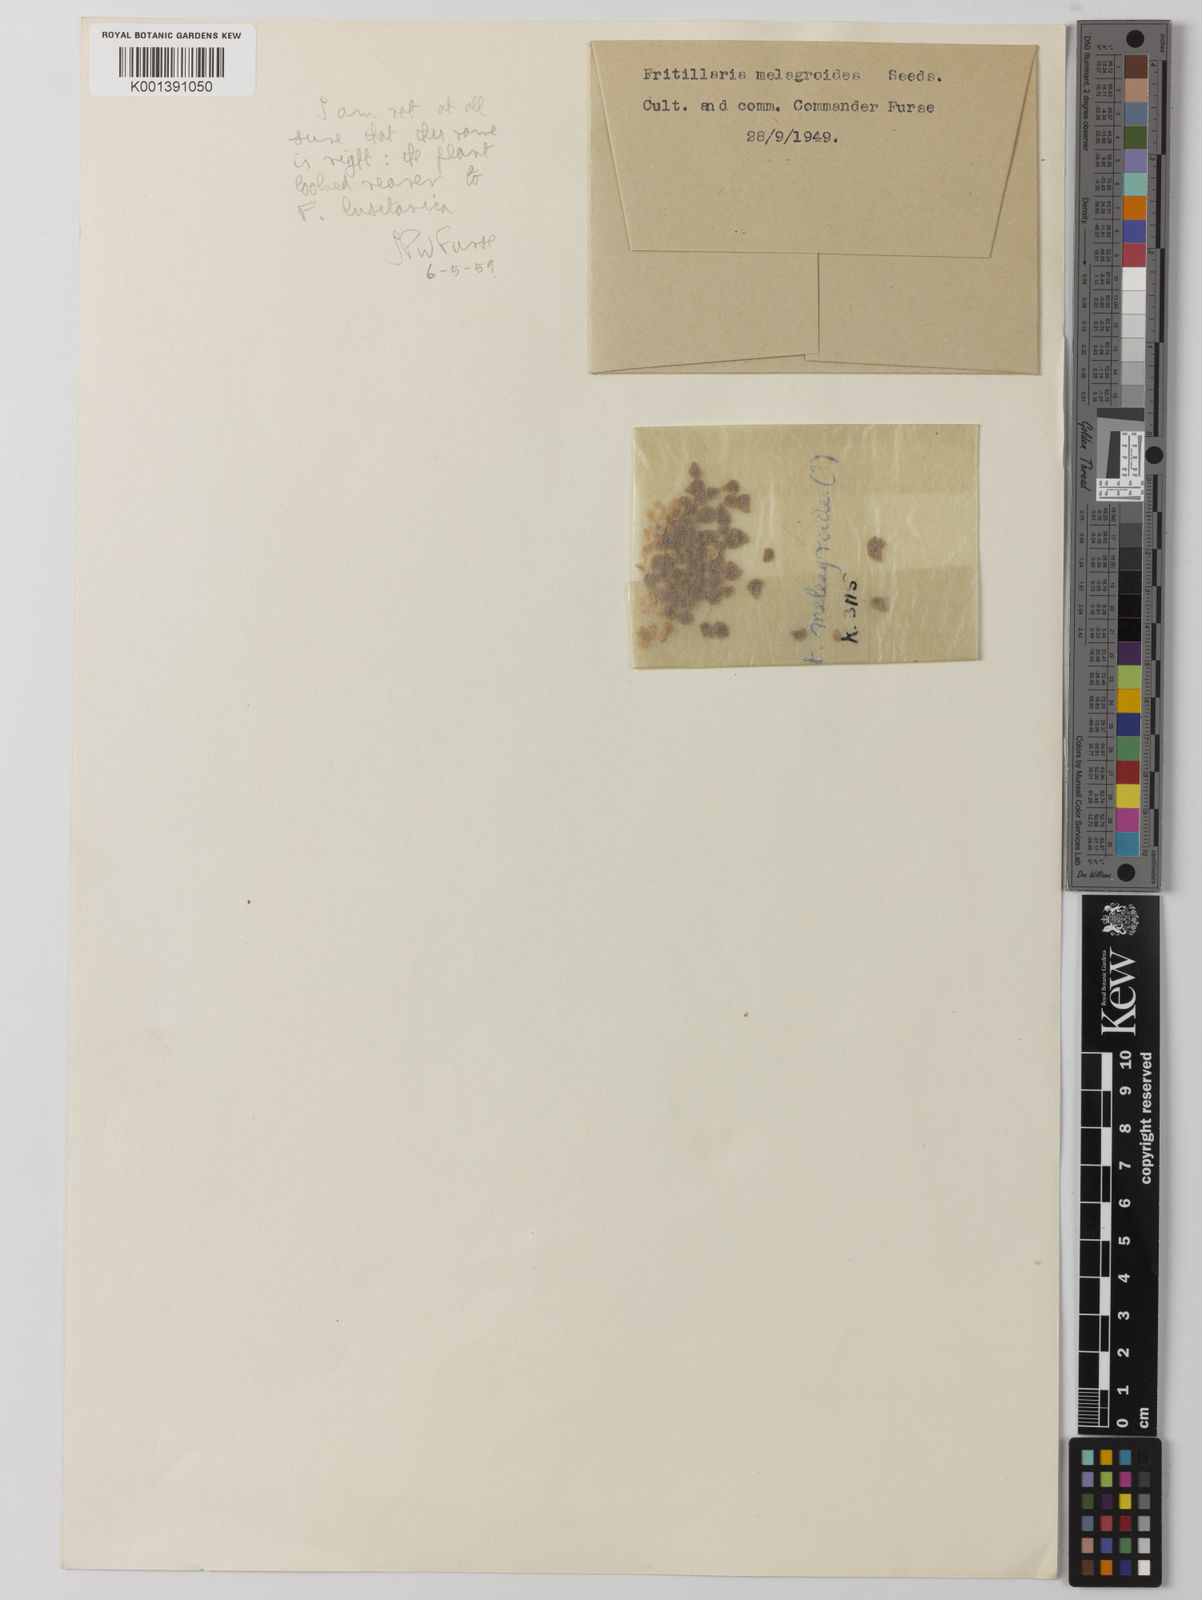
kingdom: Plantae
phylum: Tracheophyta
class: Liliopsida
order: Liliales
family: Liliaceae
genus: Fritillaria
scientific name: Fritillaria lusitanica
